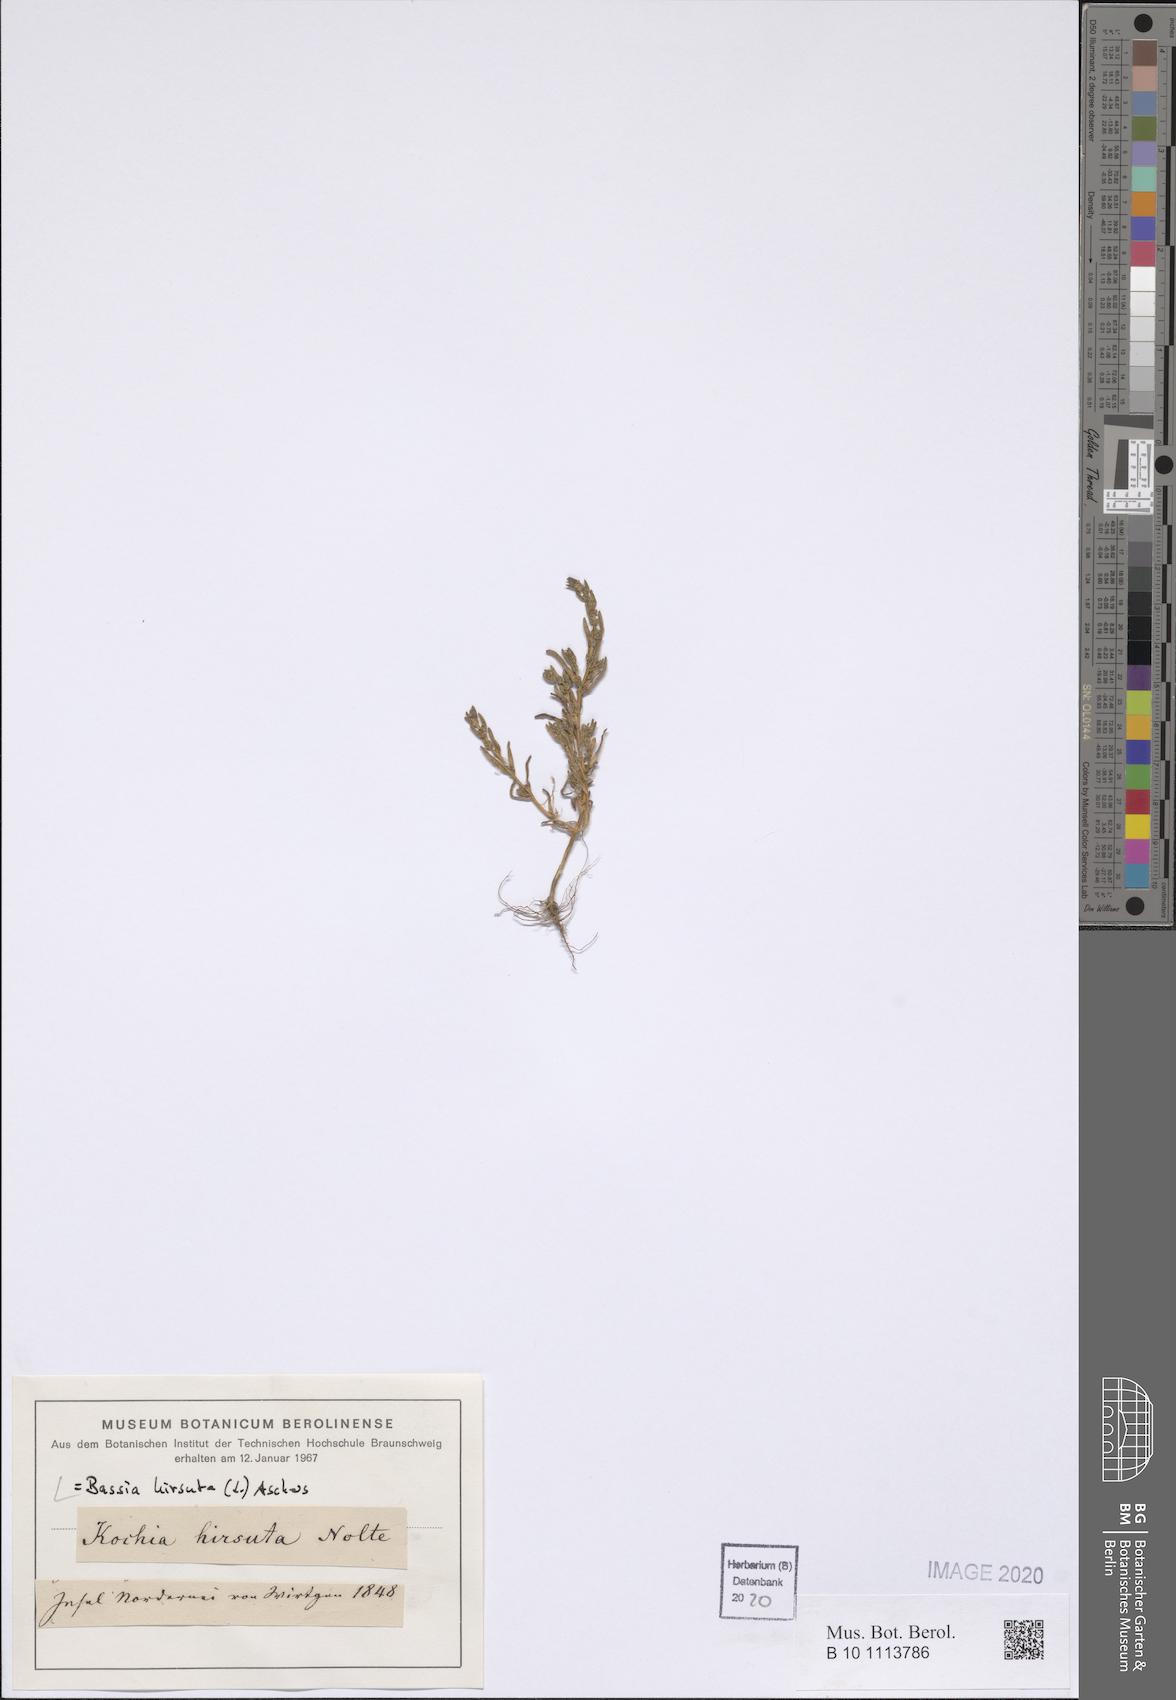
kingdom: Plantae
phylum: Tracheophyta
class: Magnoliopsida
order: Caryophyllales
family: Amaranthaceae
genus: Spirobassia
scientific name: Spirobassia hirsuta
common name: Hairy smotherweed
